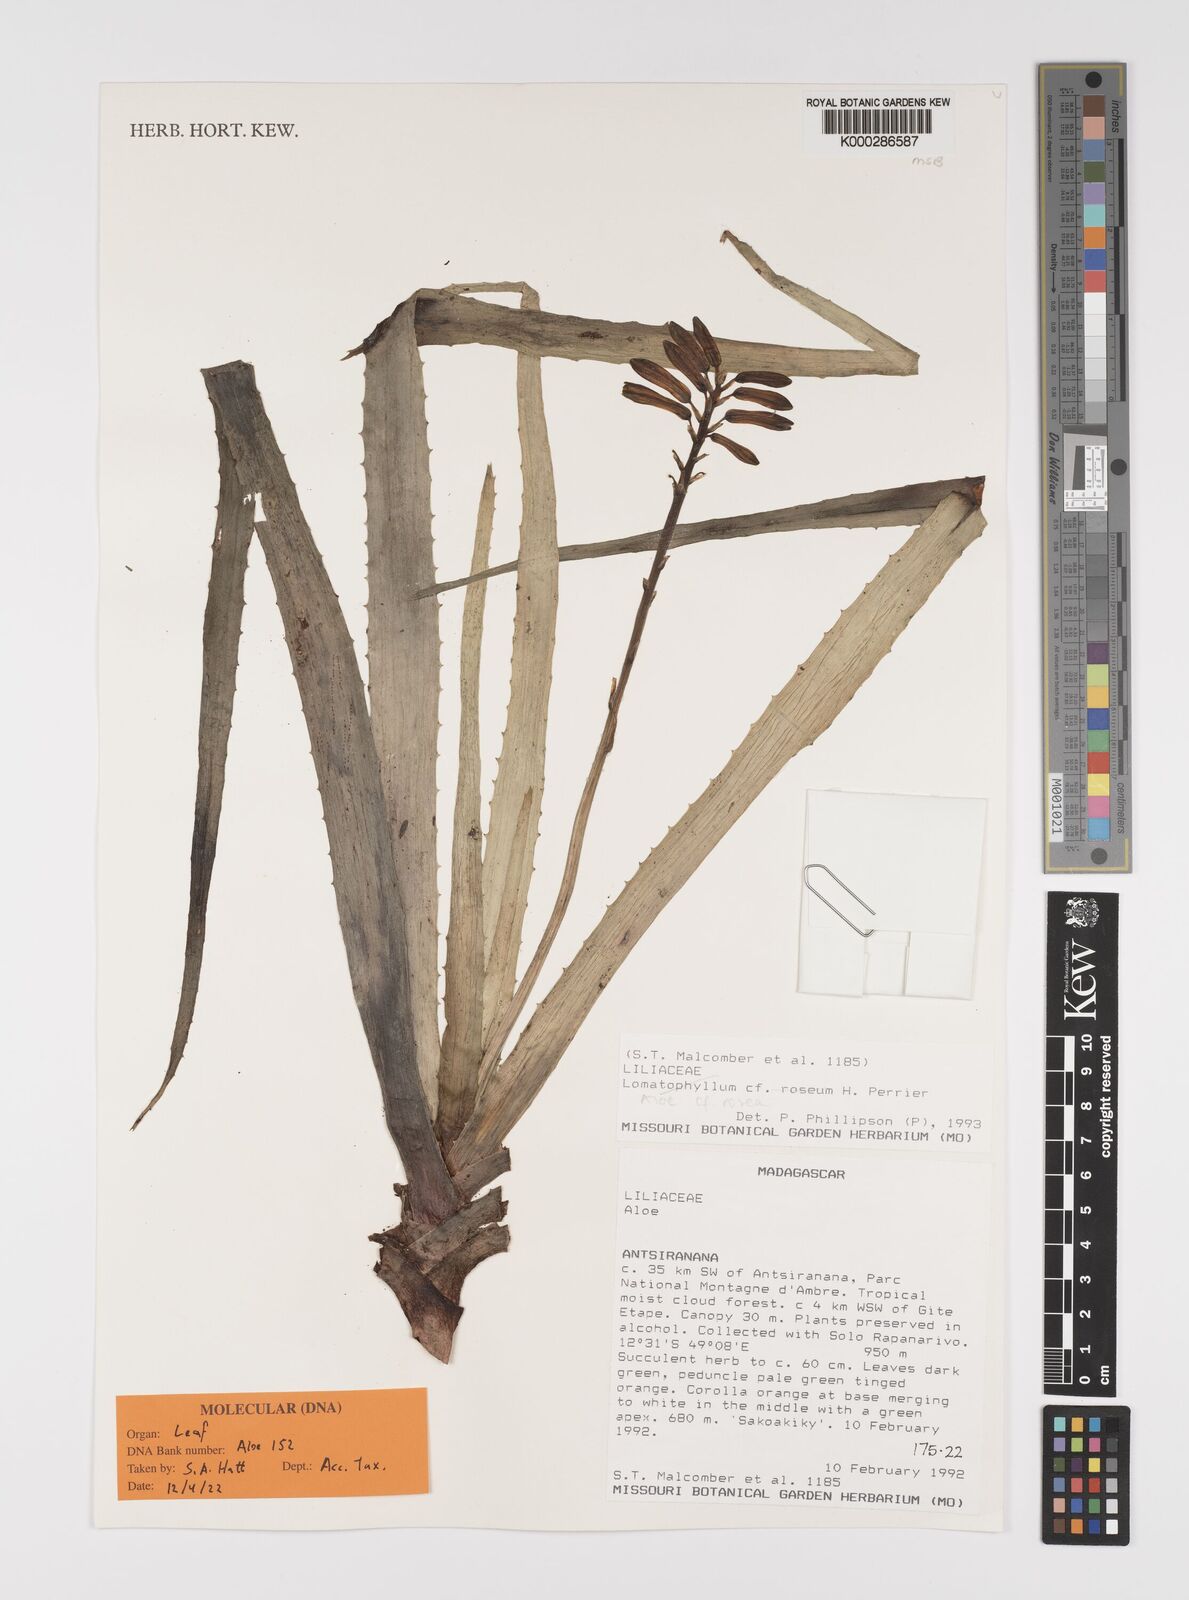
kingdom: Plantae
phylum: Tracheophyta
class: Liliopsida
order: Asparagales
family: Asphodelaceae
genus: Aloe
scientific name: Aloe
